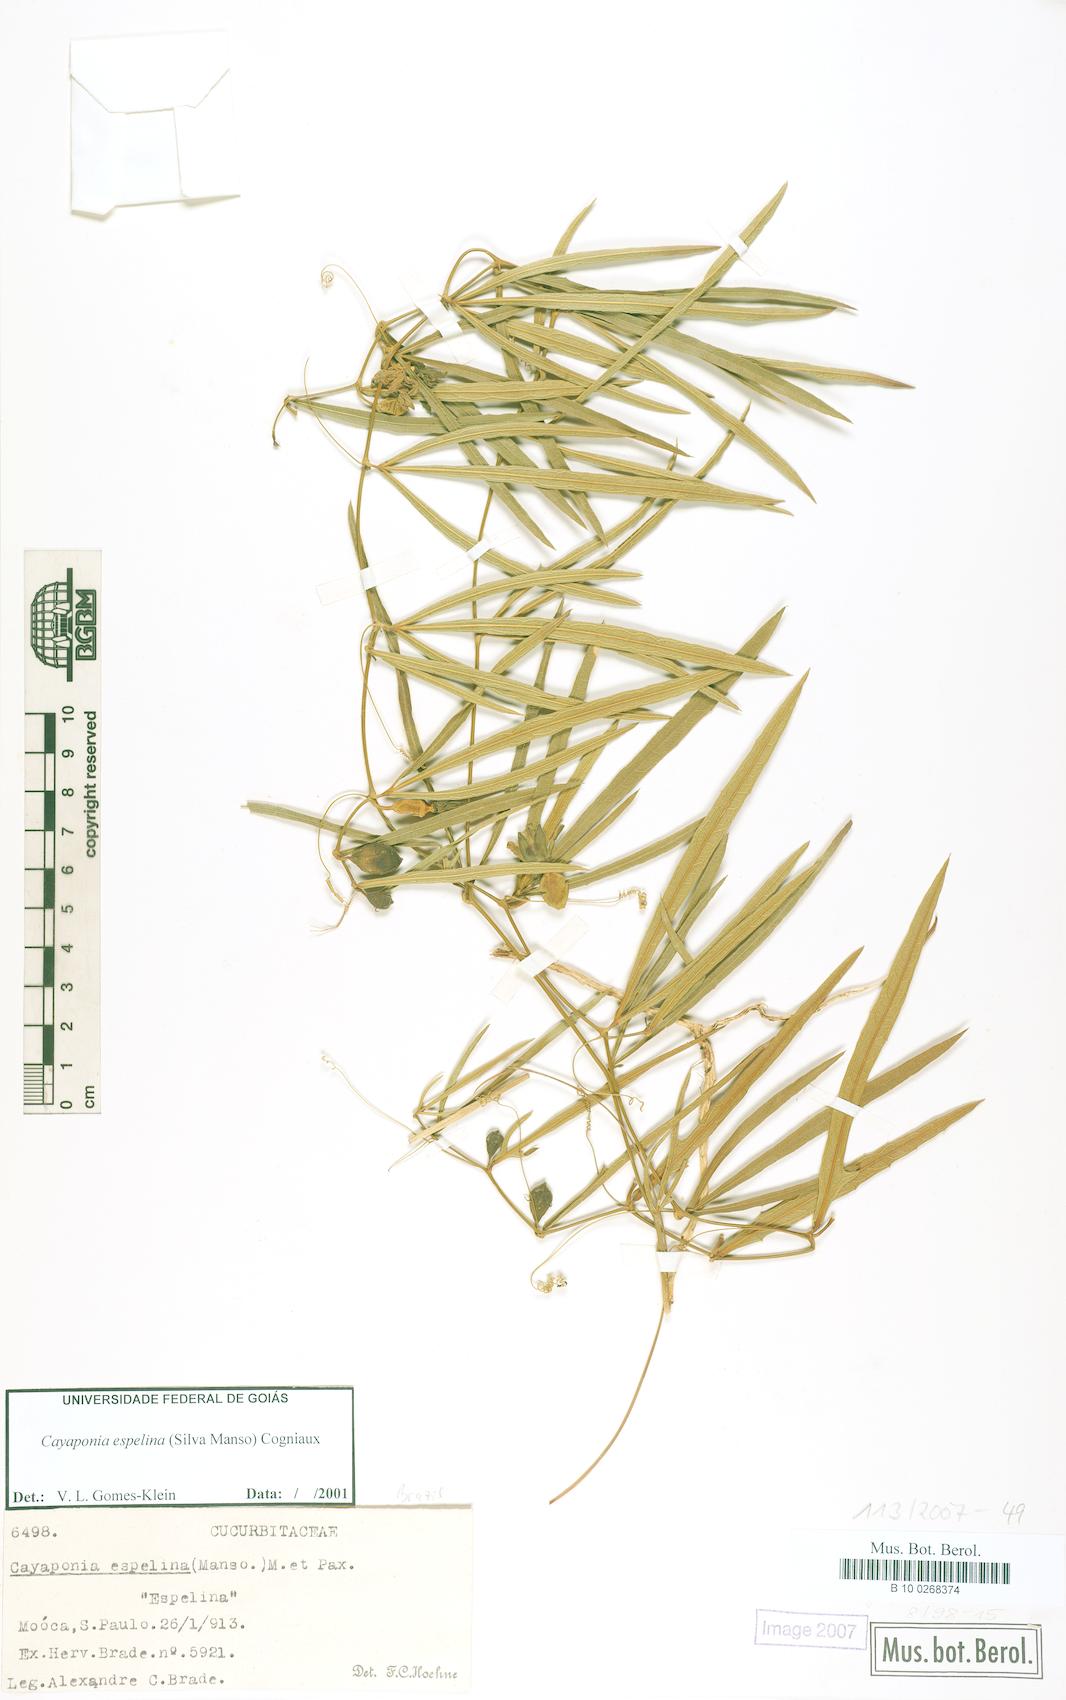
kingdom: Plantae
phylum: Tracheophyta
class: Magnoliopsida
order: Cucurbitales
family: Cucurbitaceae
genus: Cayaponia
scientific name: Cayaponia espelina
